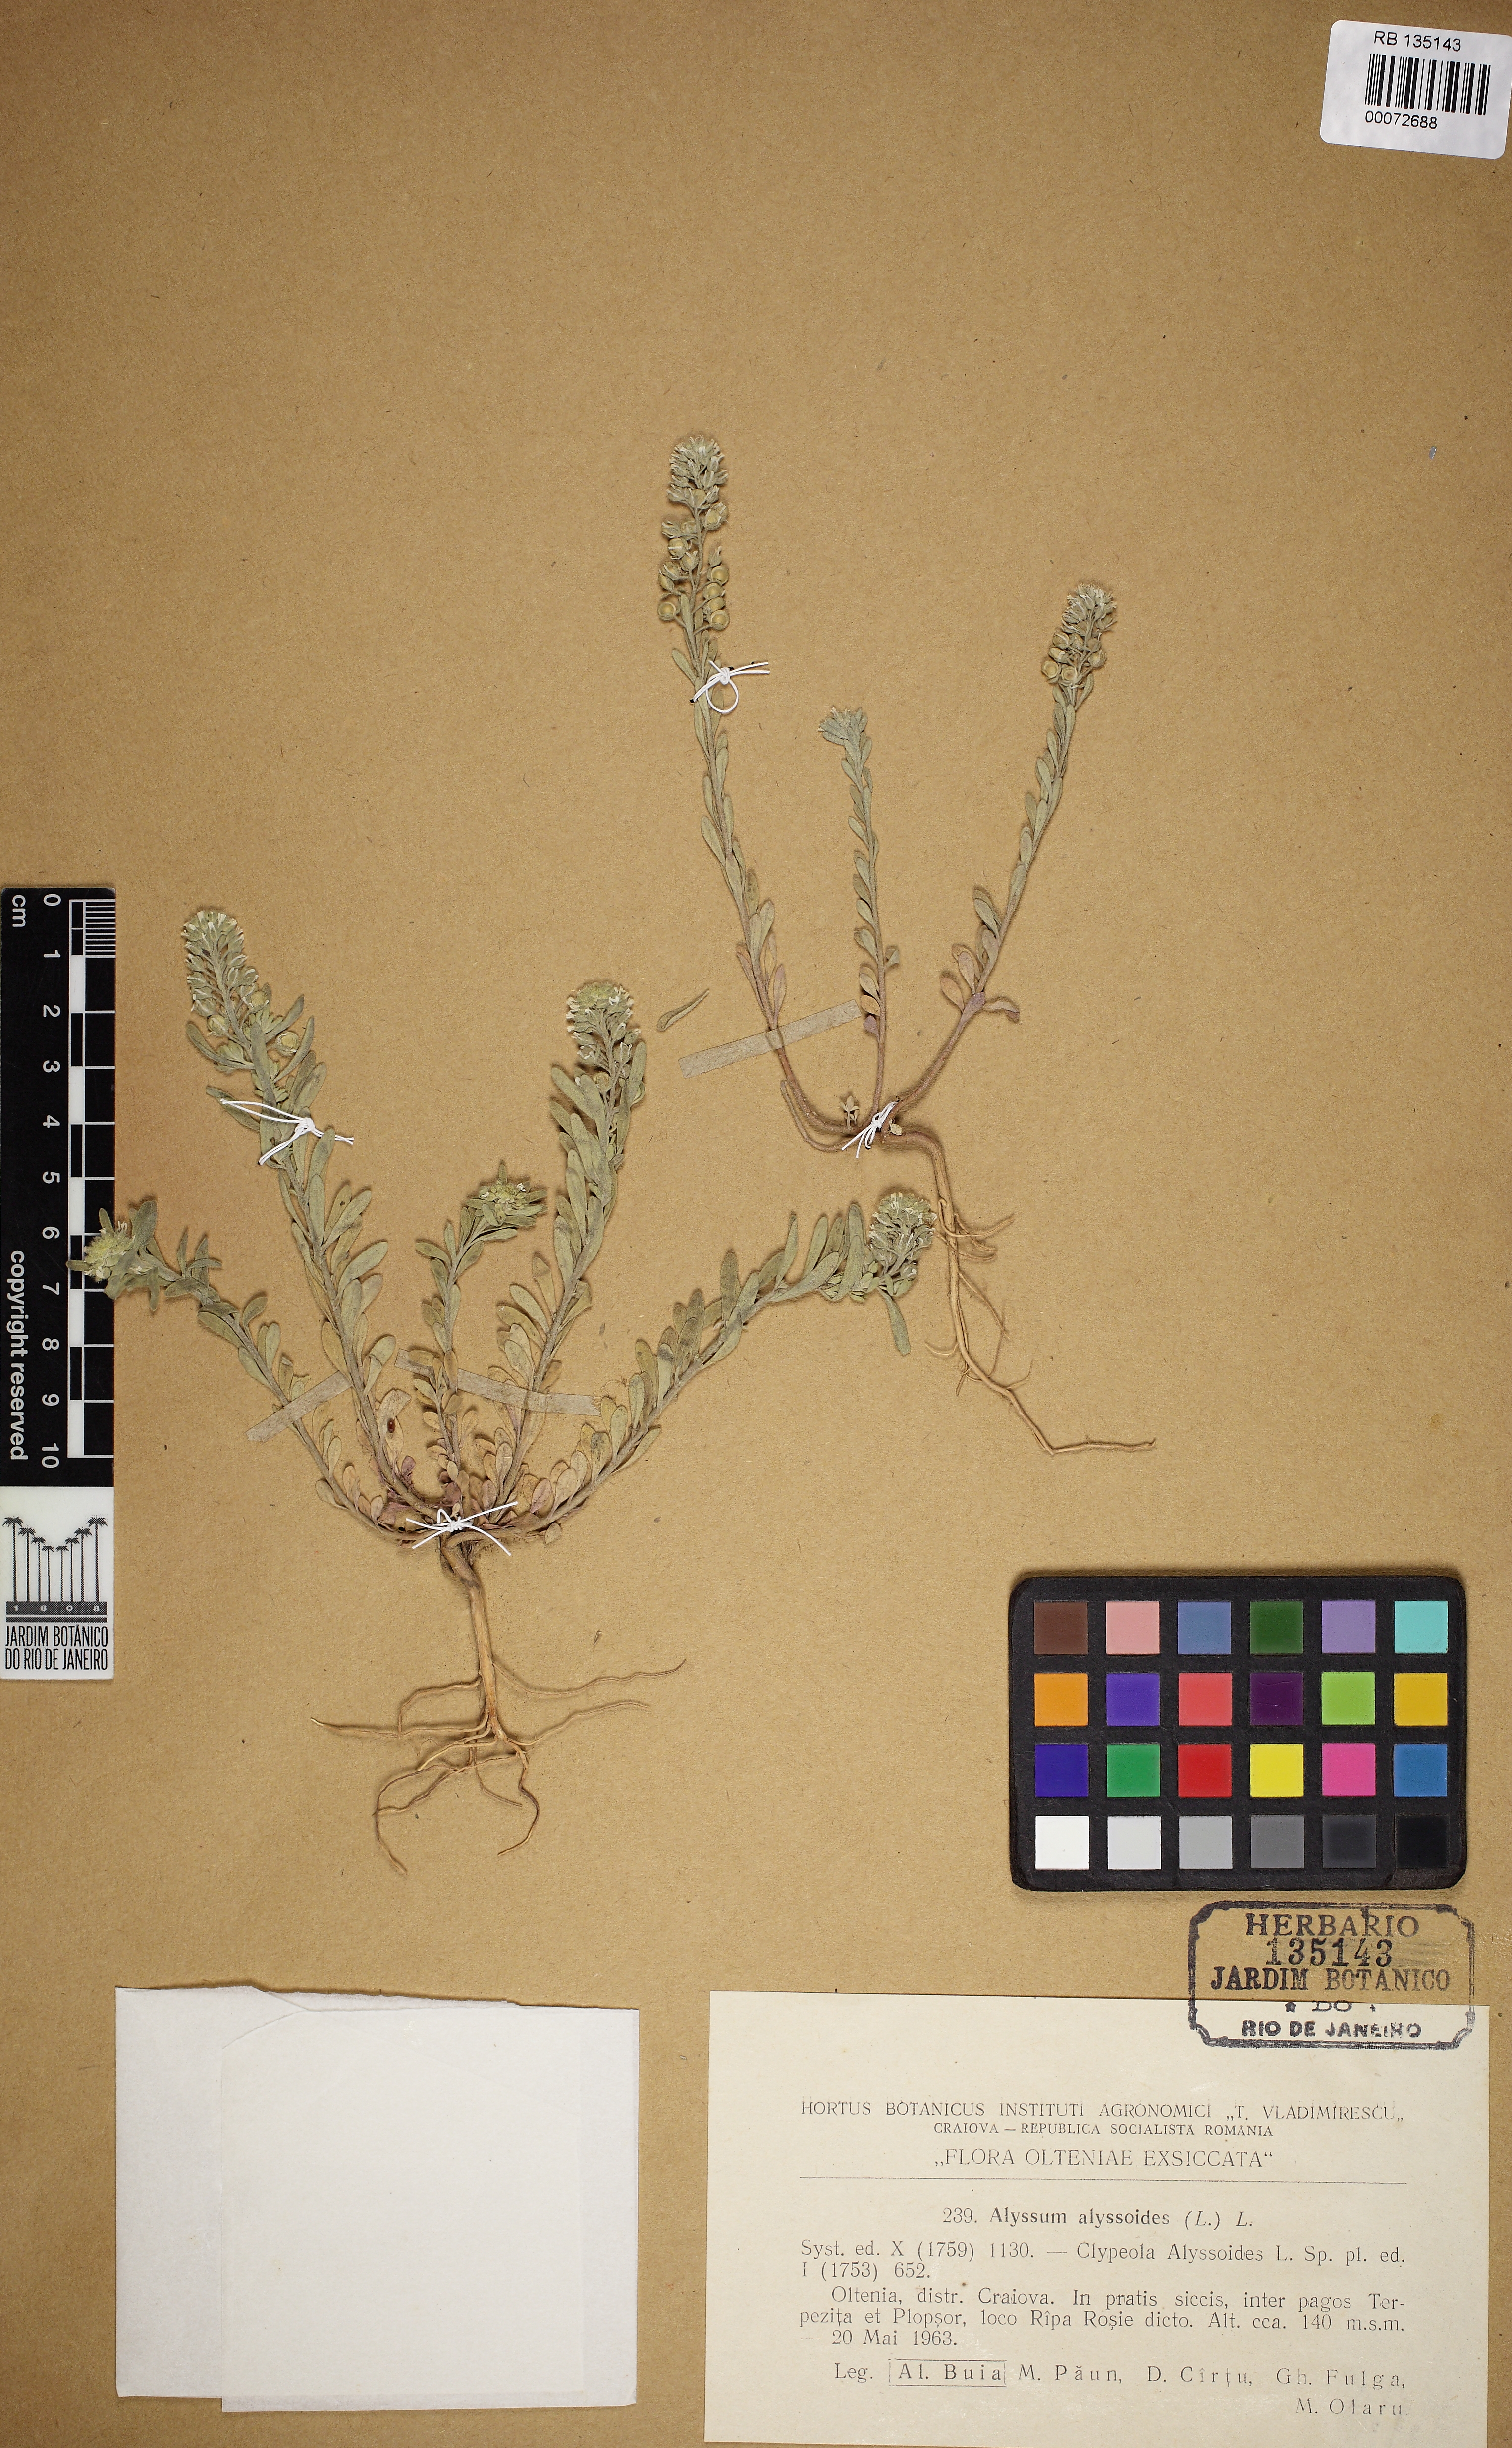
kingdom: Plantae
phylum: Tracheophyta
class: Magnoliopsida
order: Brassicales
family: Brassicaceae
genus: Alyssum
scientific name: Alyssum alyssoides
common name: Small alison
